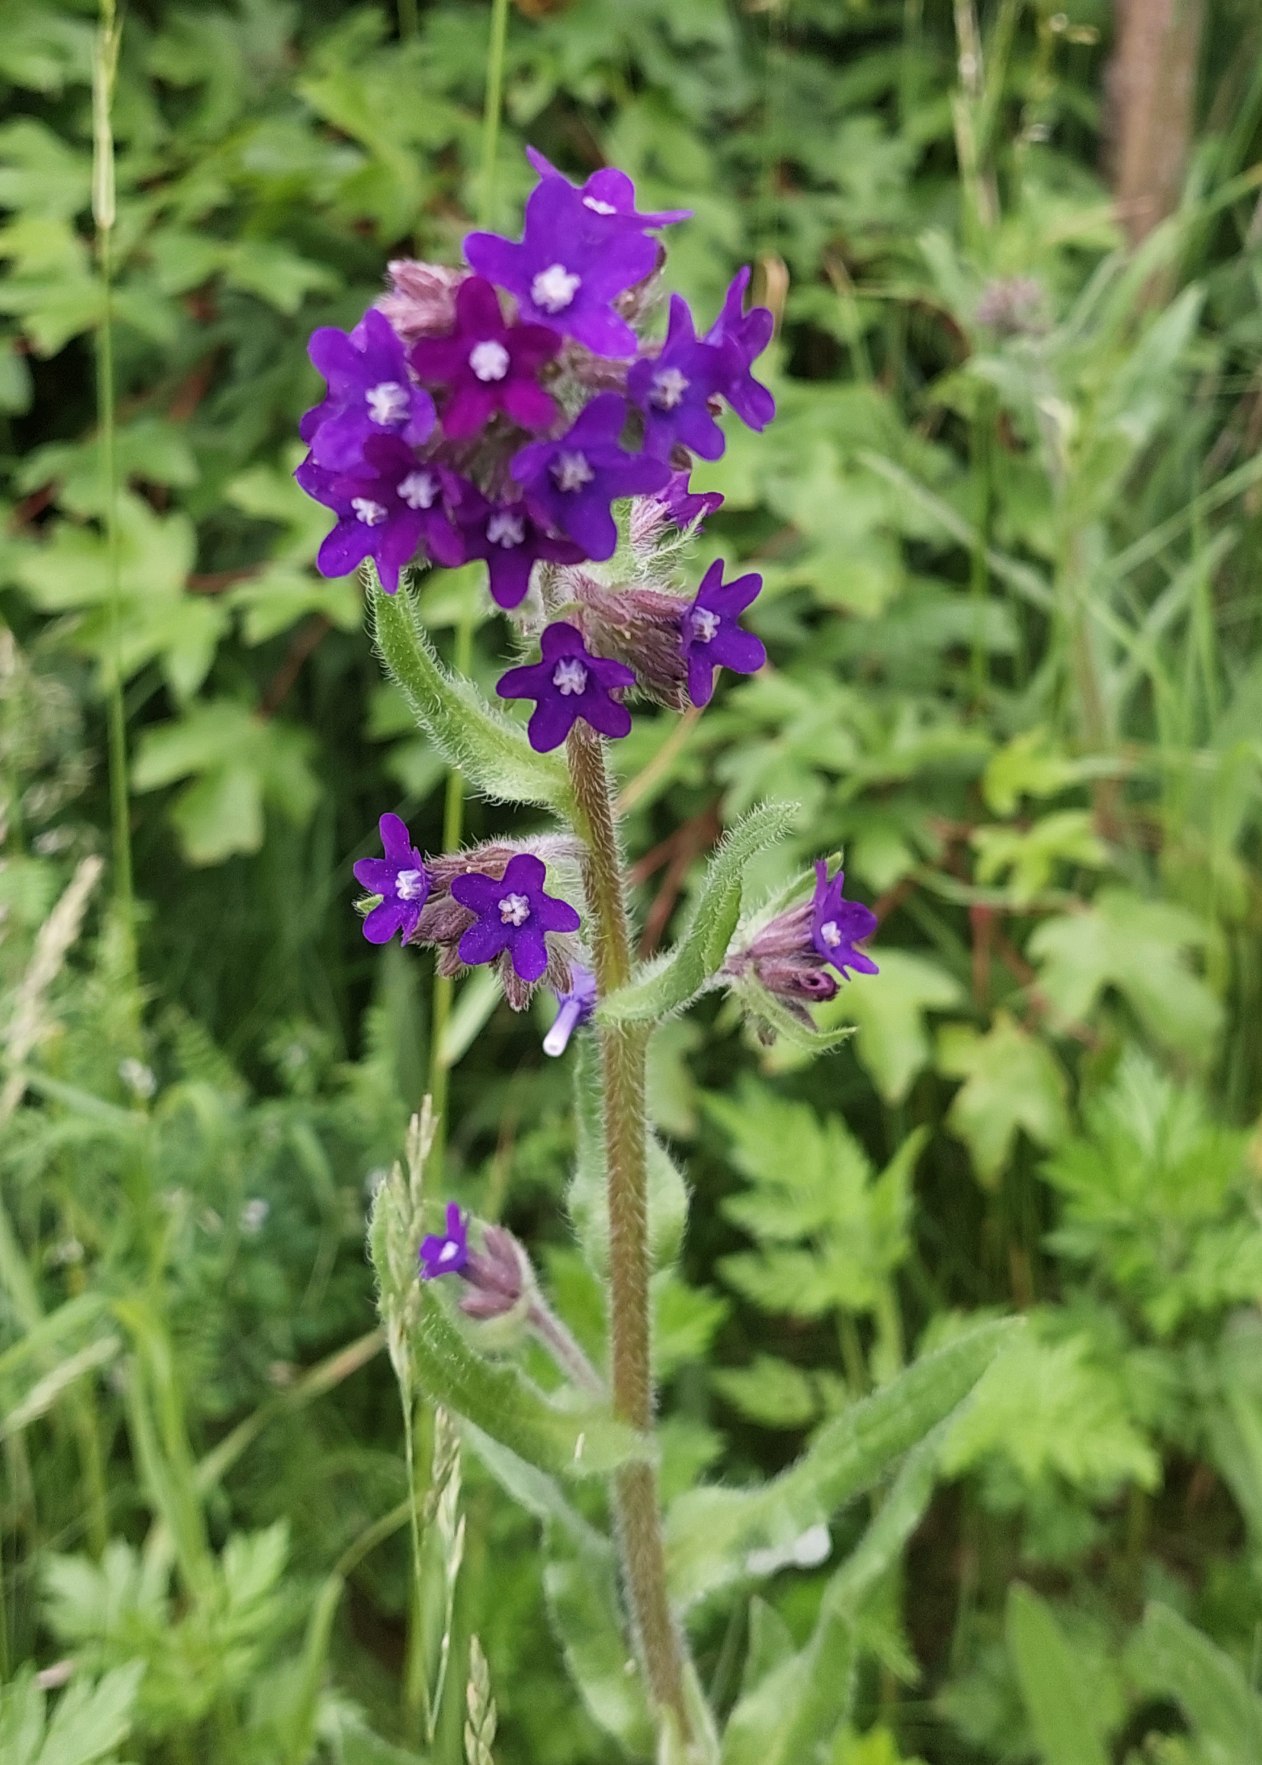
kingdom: Plantae
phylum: Tracheophyta
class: Magnoliopsida
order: Boraginales
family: Boraginaceae
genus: Anchusa
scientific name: Anchusa officinalis
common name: Læge-oksetunge
